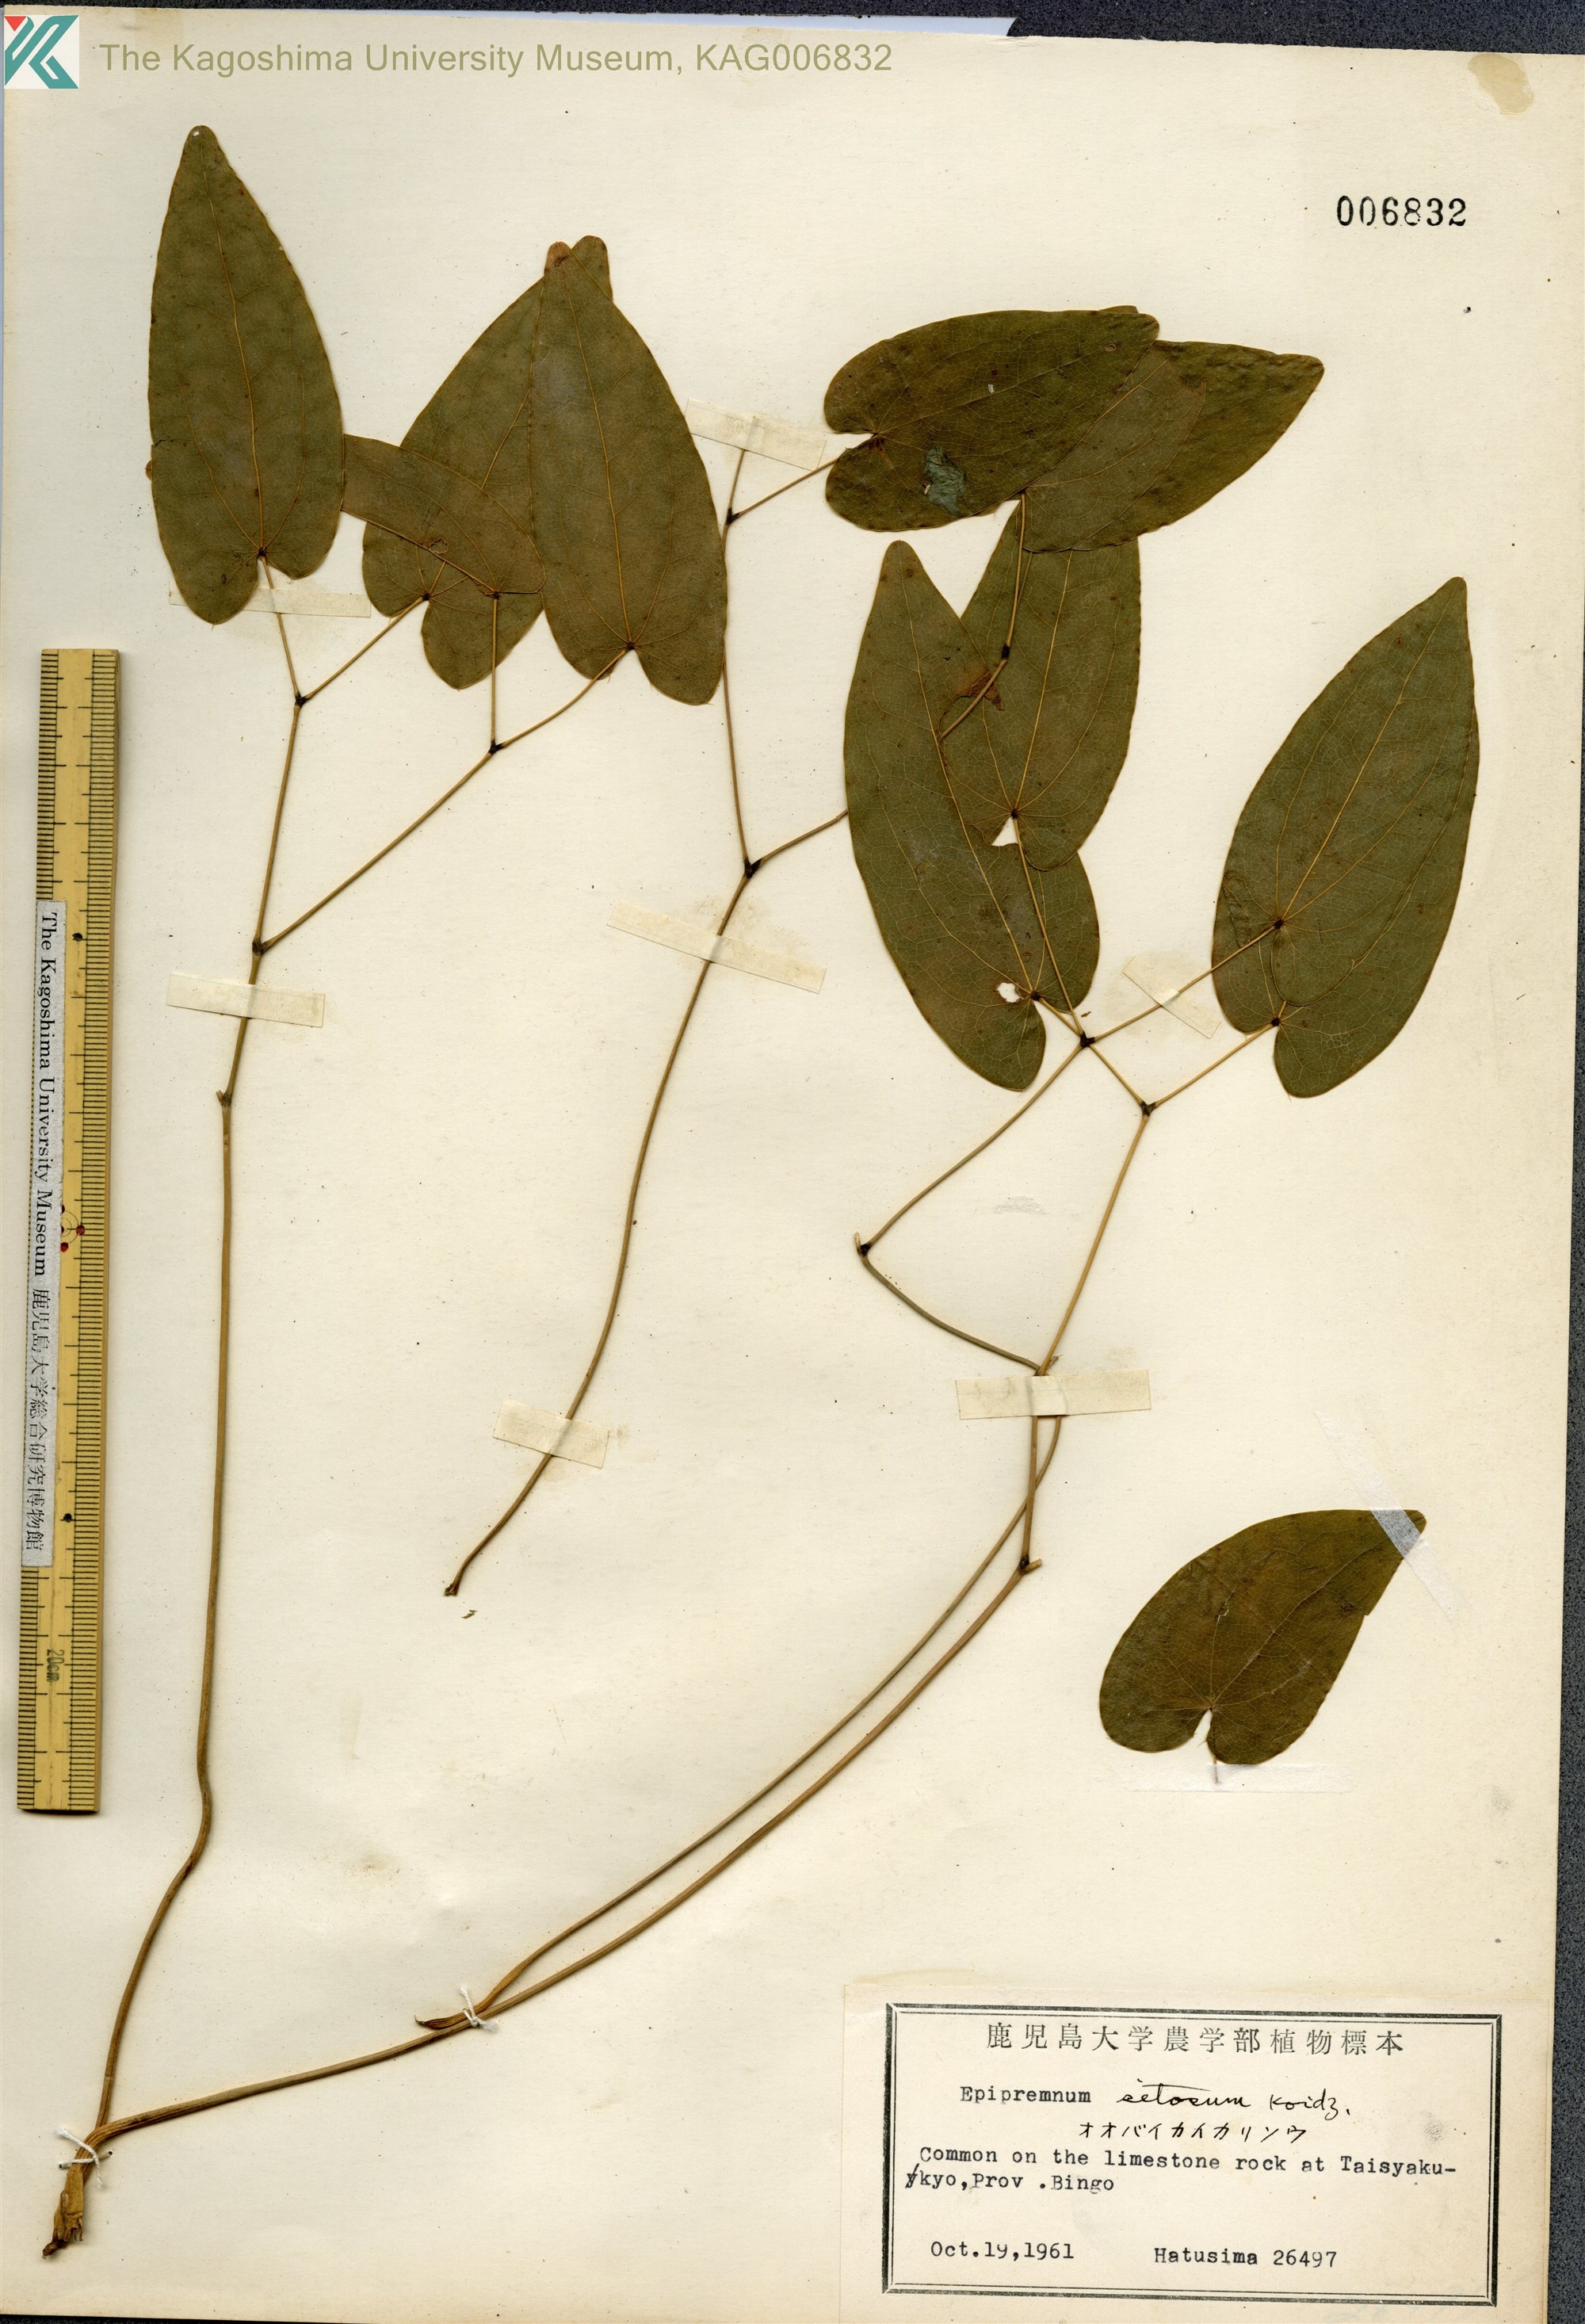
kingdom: Plantae
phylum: Tracheophyta
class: Magnoliopsida
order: Ranunculales
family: Berberidaceae
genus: Epimedium
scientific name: Epimedium setosum
